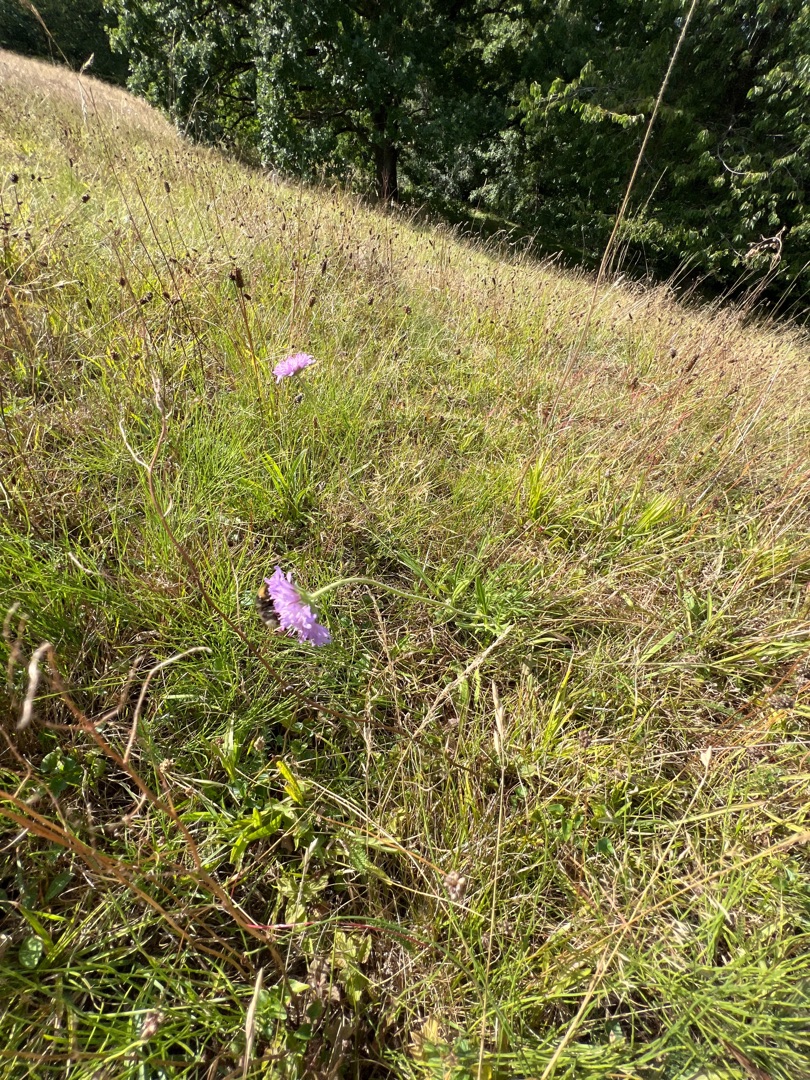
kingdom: Plantae
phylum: Tracheophyta
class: Magnoliopsida
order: Dipsacales
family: Caprifoliaceae
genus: Knautia
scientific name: Knautia arvensis
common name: Blåhat
